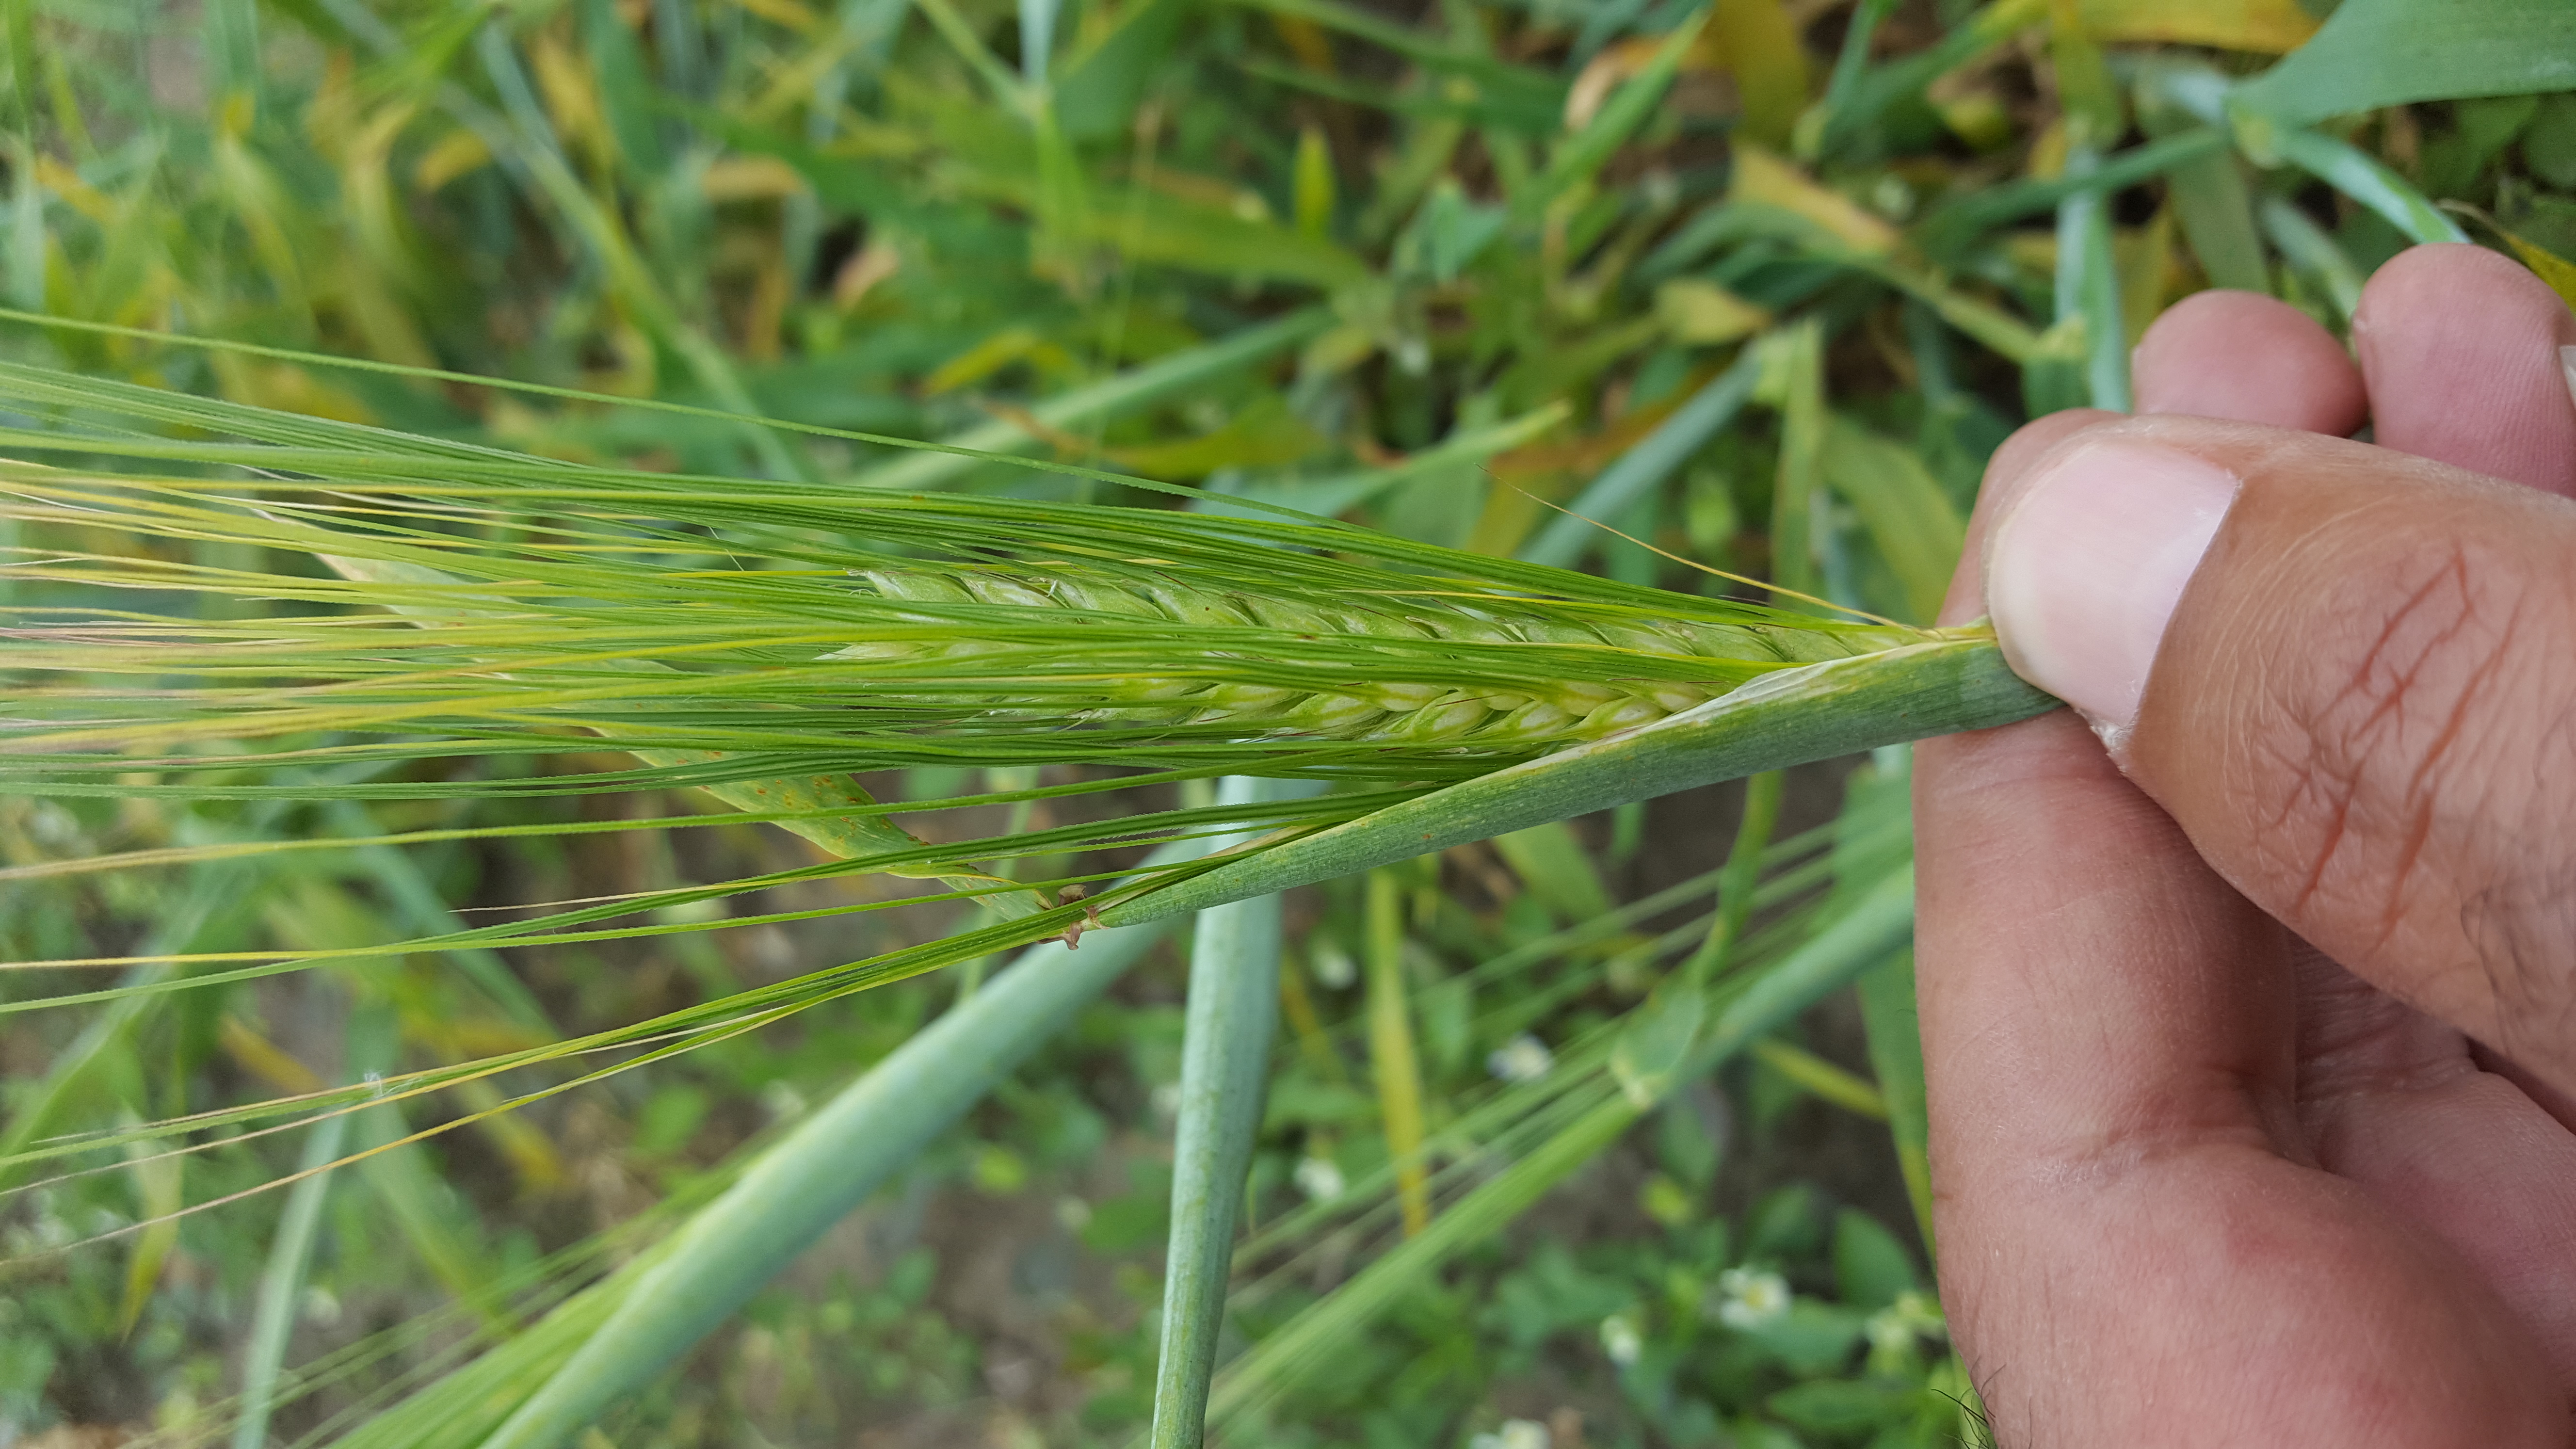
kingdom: Plantae
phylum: Tracheophyta
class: Liliopsida
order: Poales
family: Poaceae
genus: Hordeum
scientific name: Hordeum vulgare
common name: Common barley
